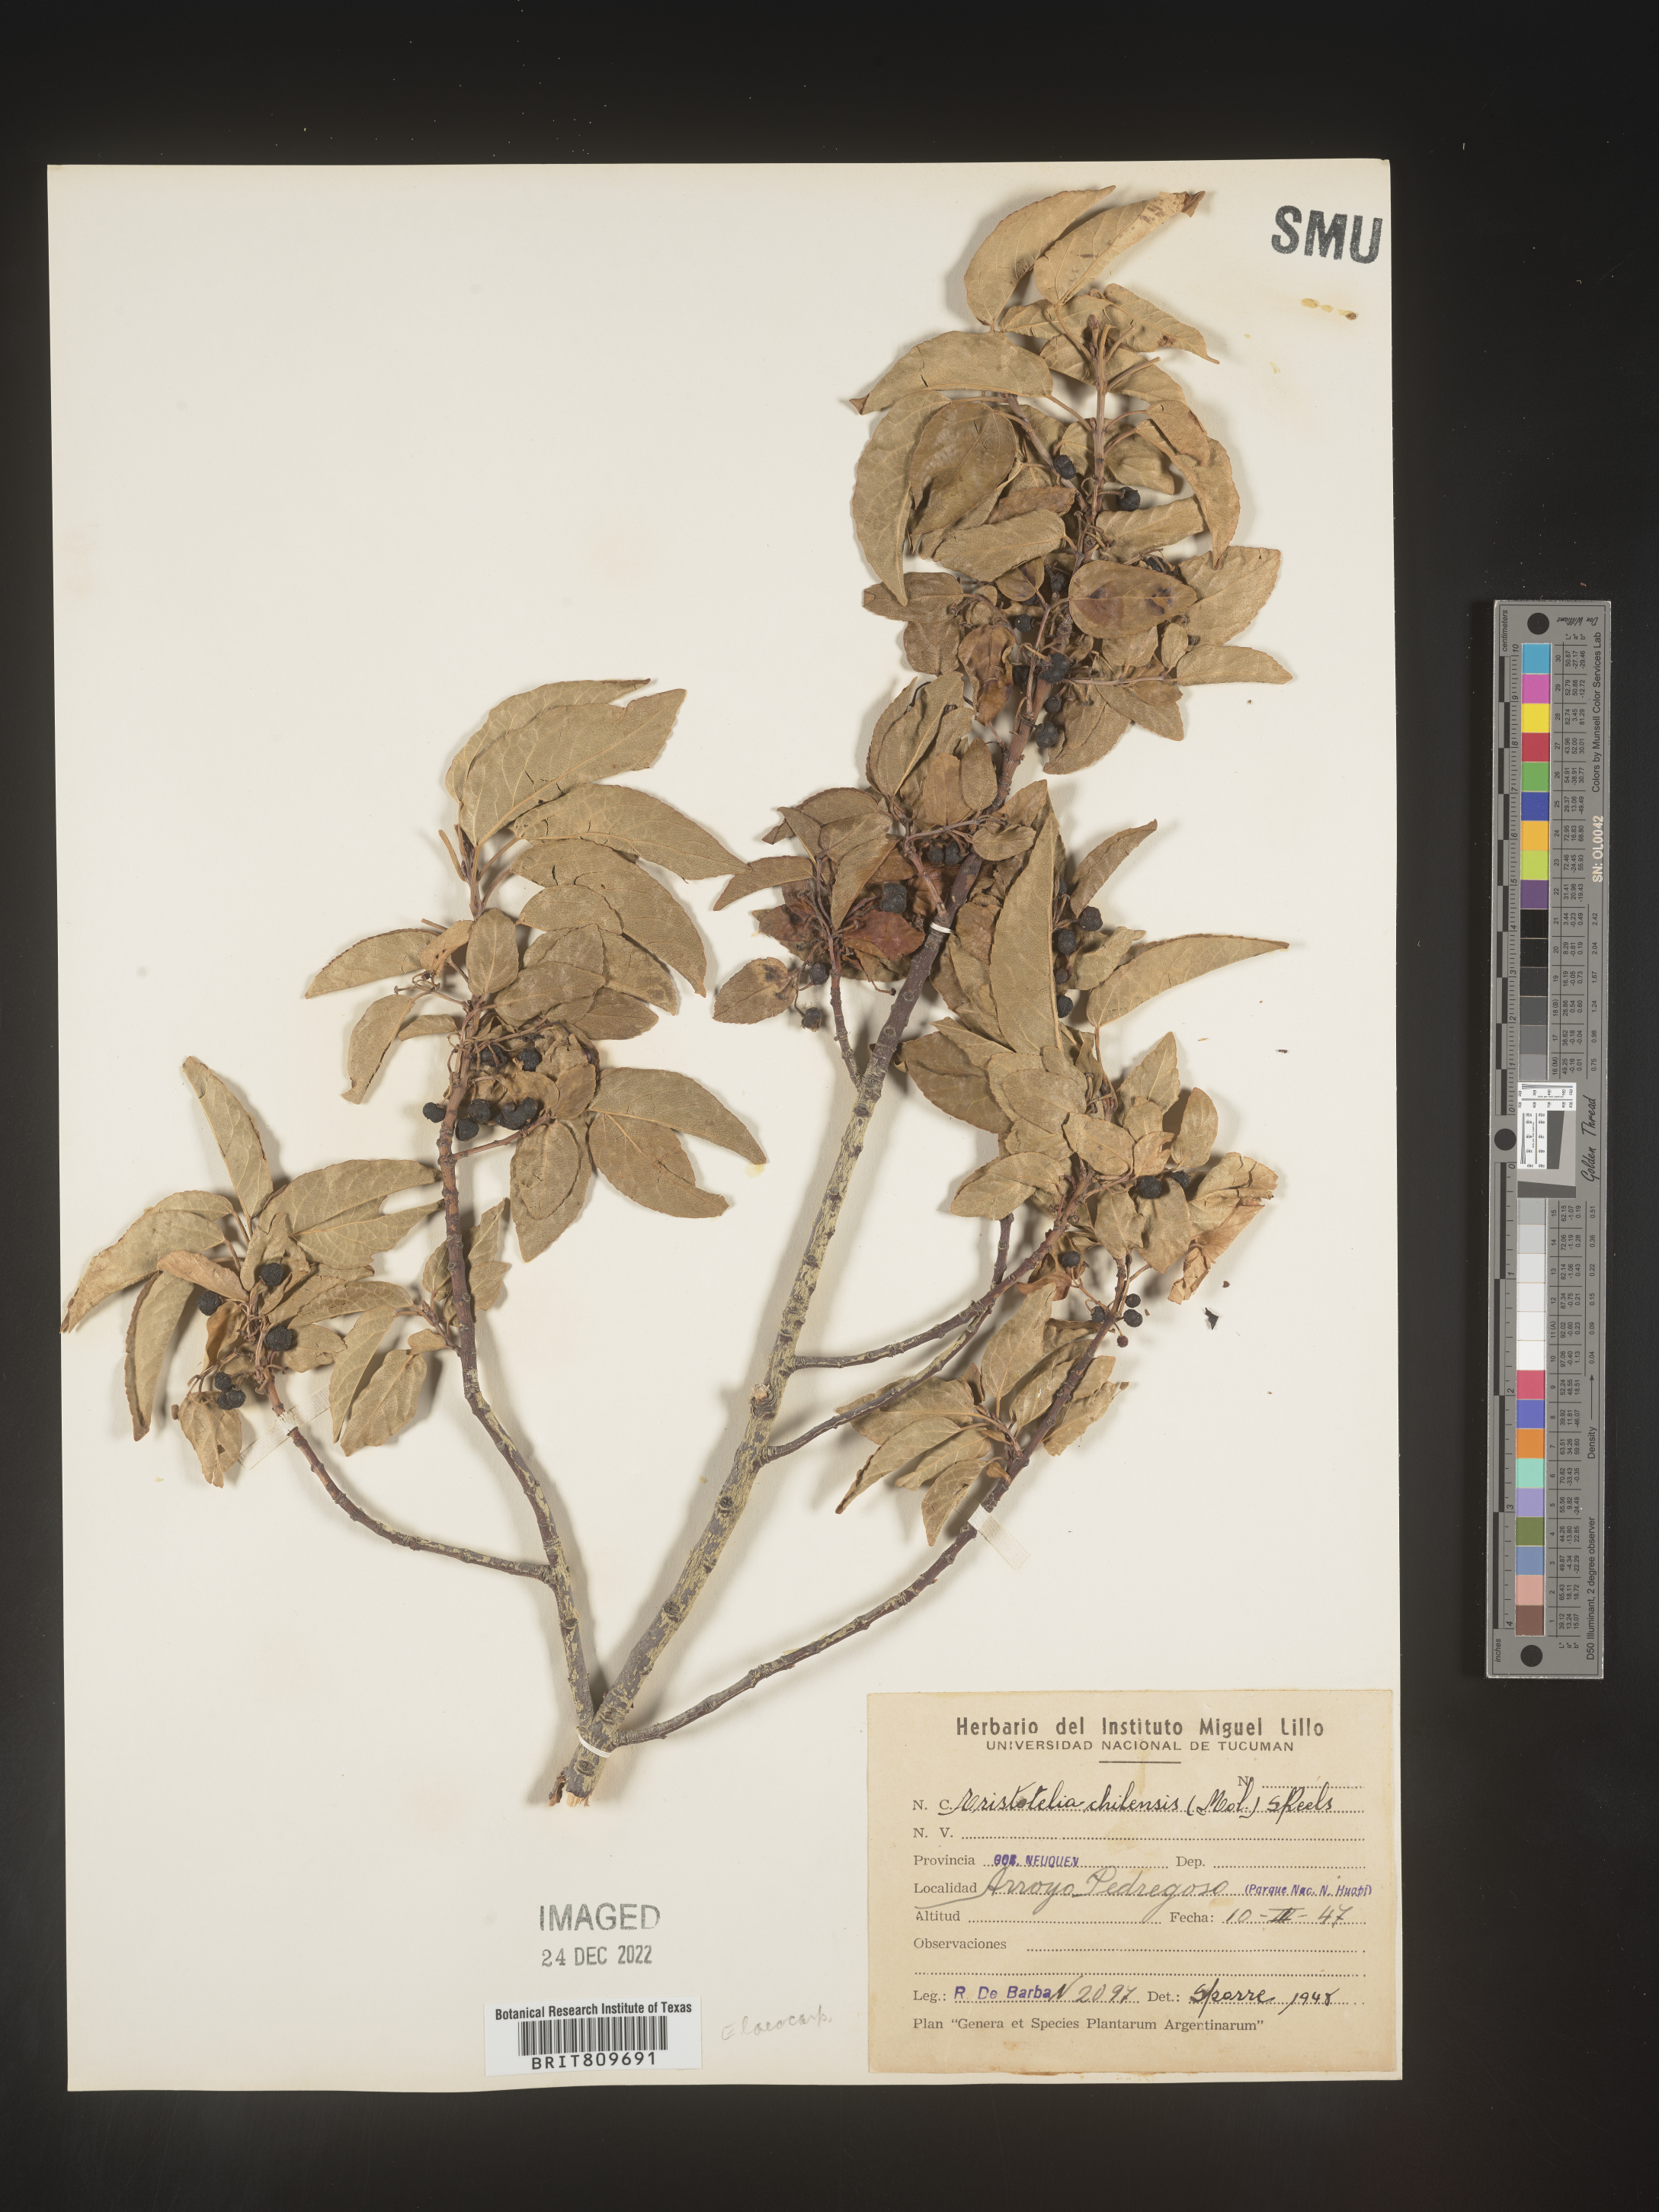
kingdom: Plantae
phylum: Tracheophyta
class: Magnoliopsida
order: Oxalidales
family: Elaeocarpaceae
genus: Aristotelia
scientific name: Aristotelia
